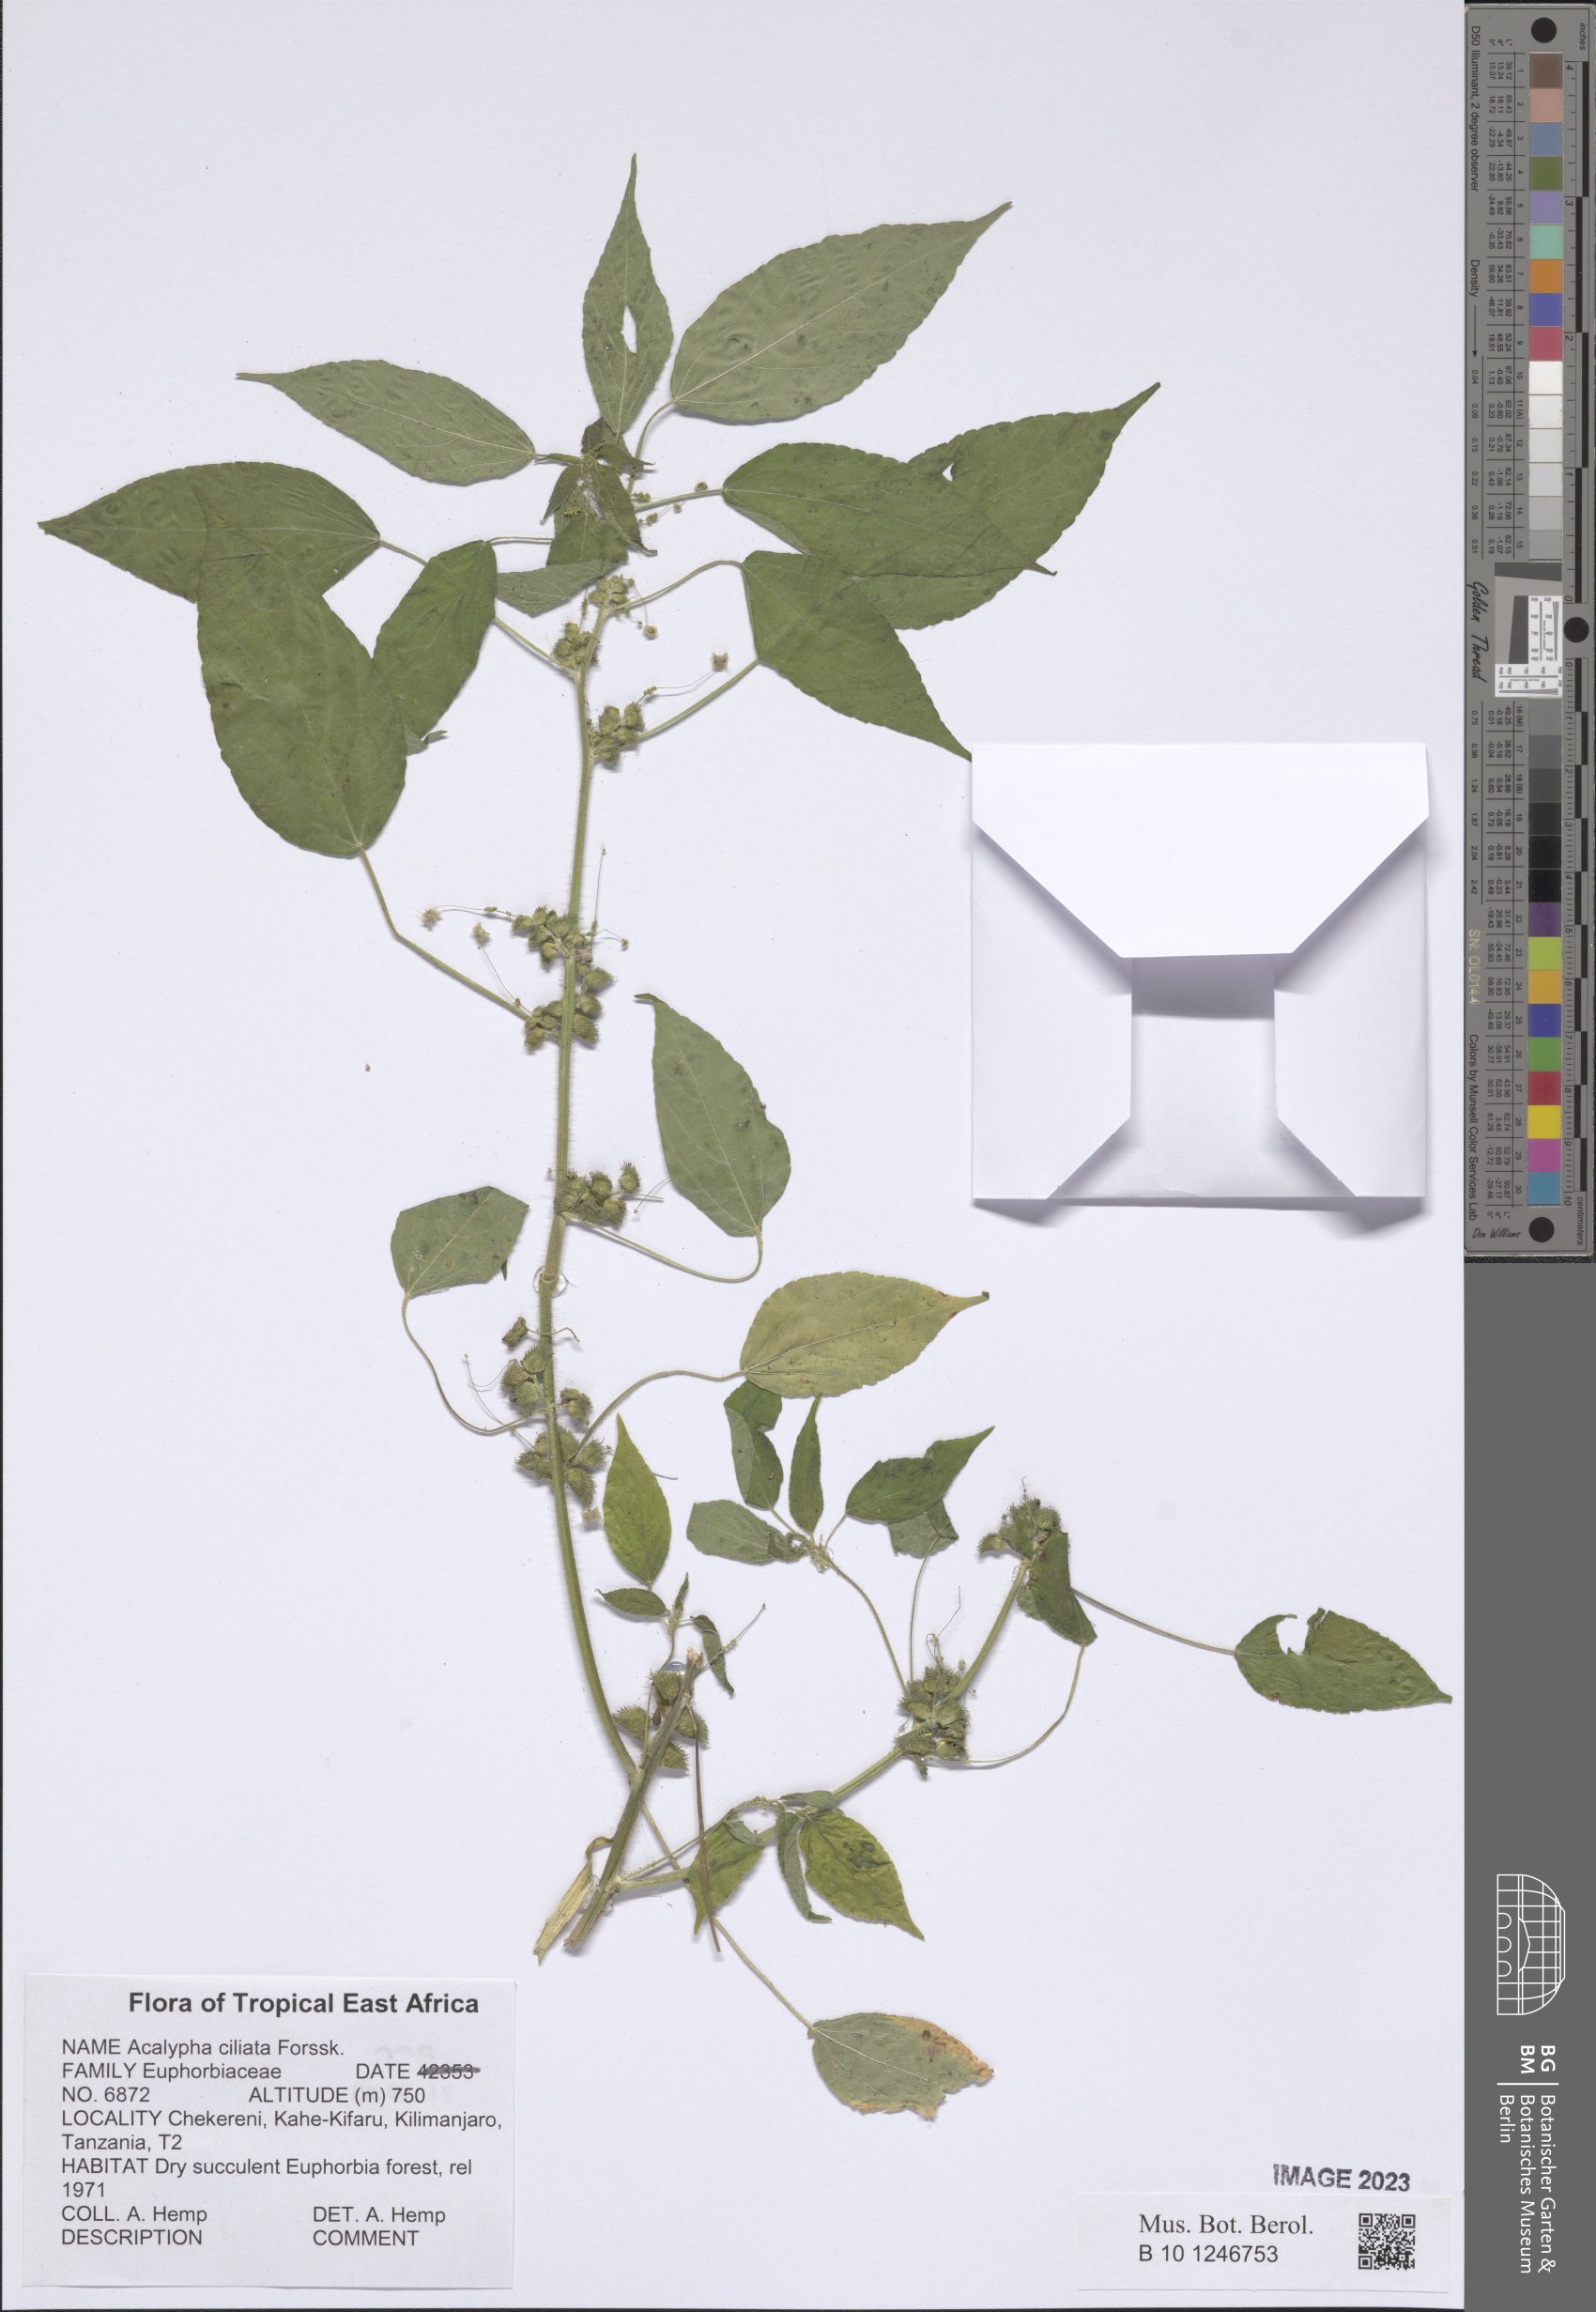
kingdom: Plantae
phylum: Tracheophyta
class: Magnoliopsida
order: Malpighiales
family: Euphorbiaceae
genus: Acalypha
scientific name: Acalypha ciliata
